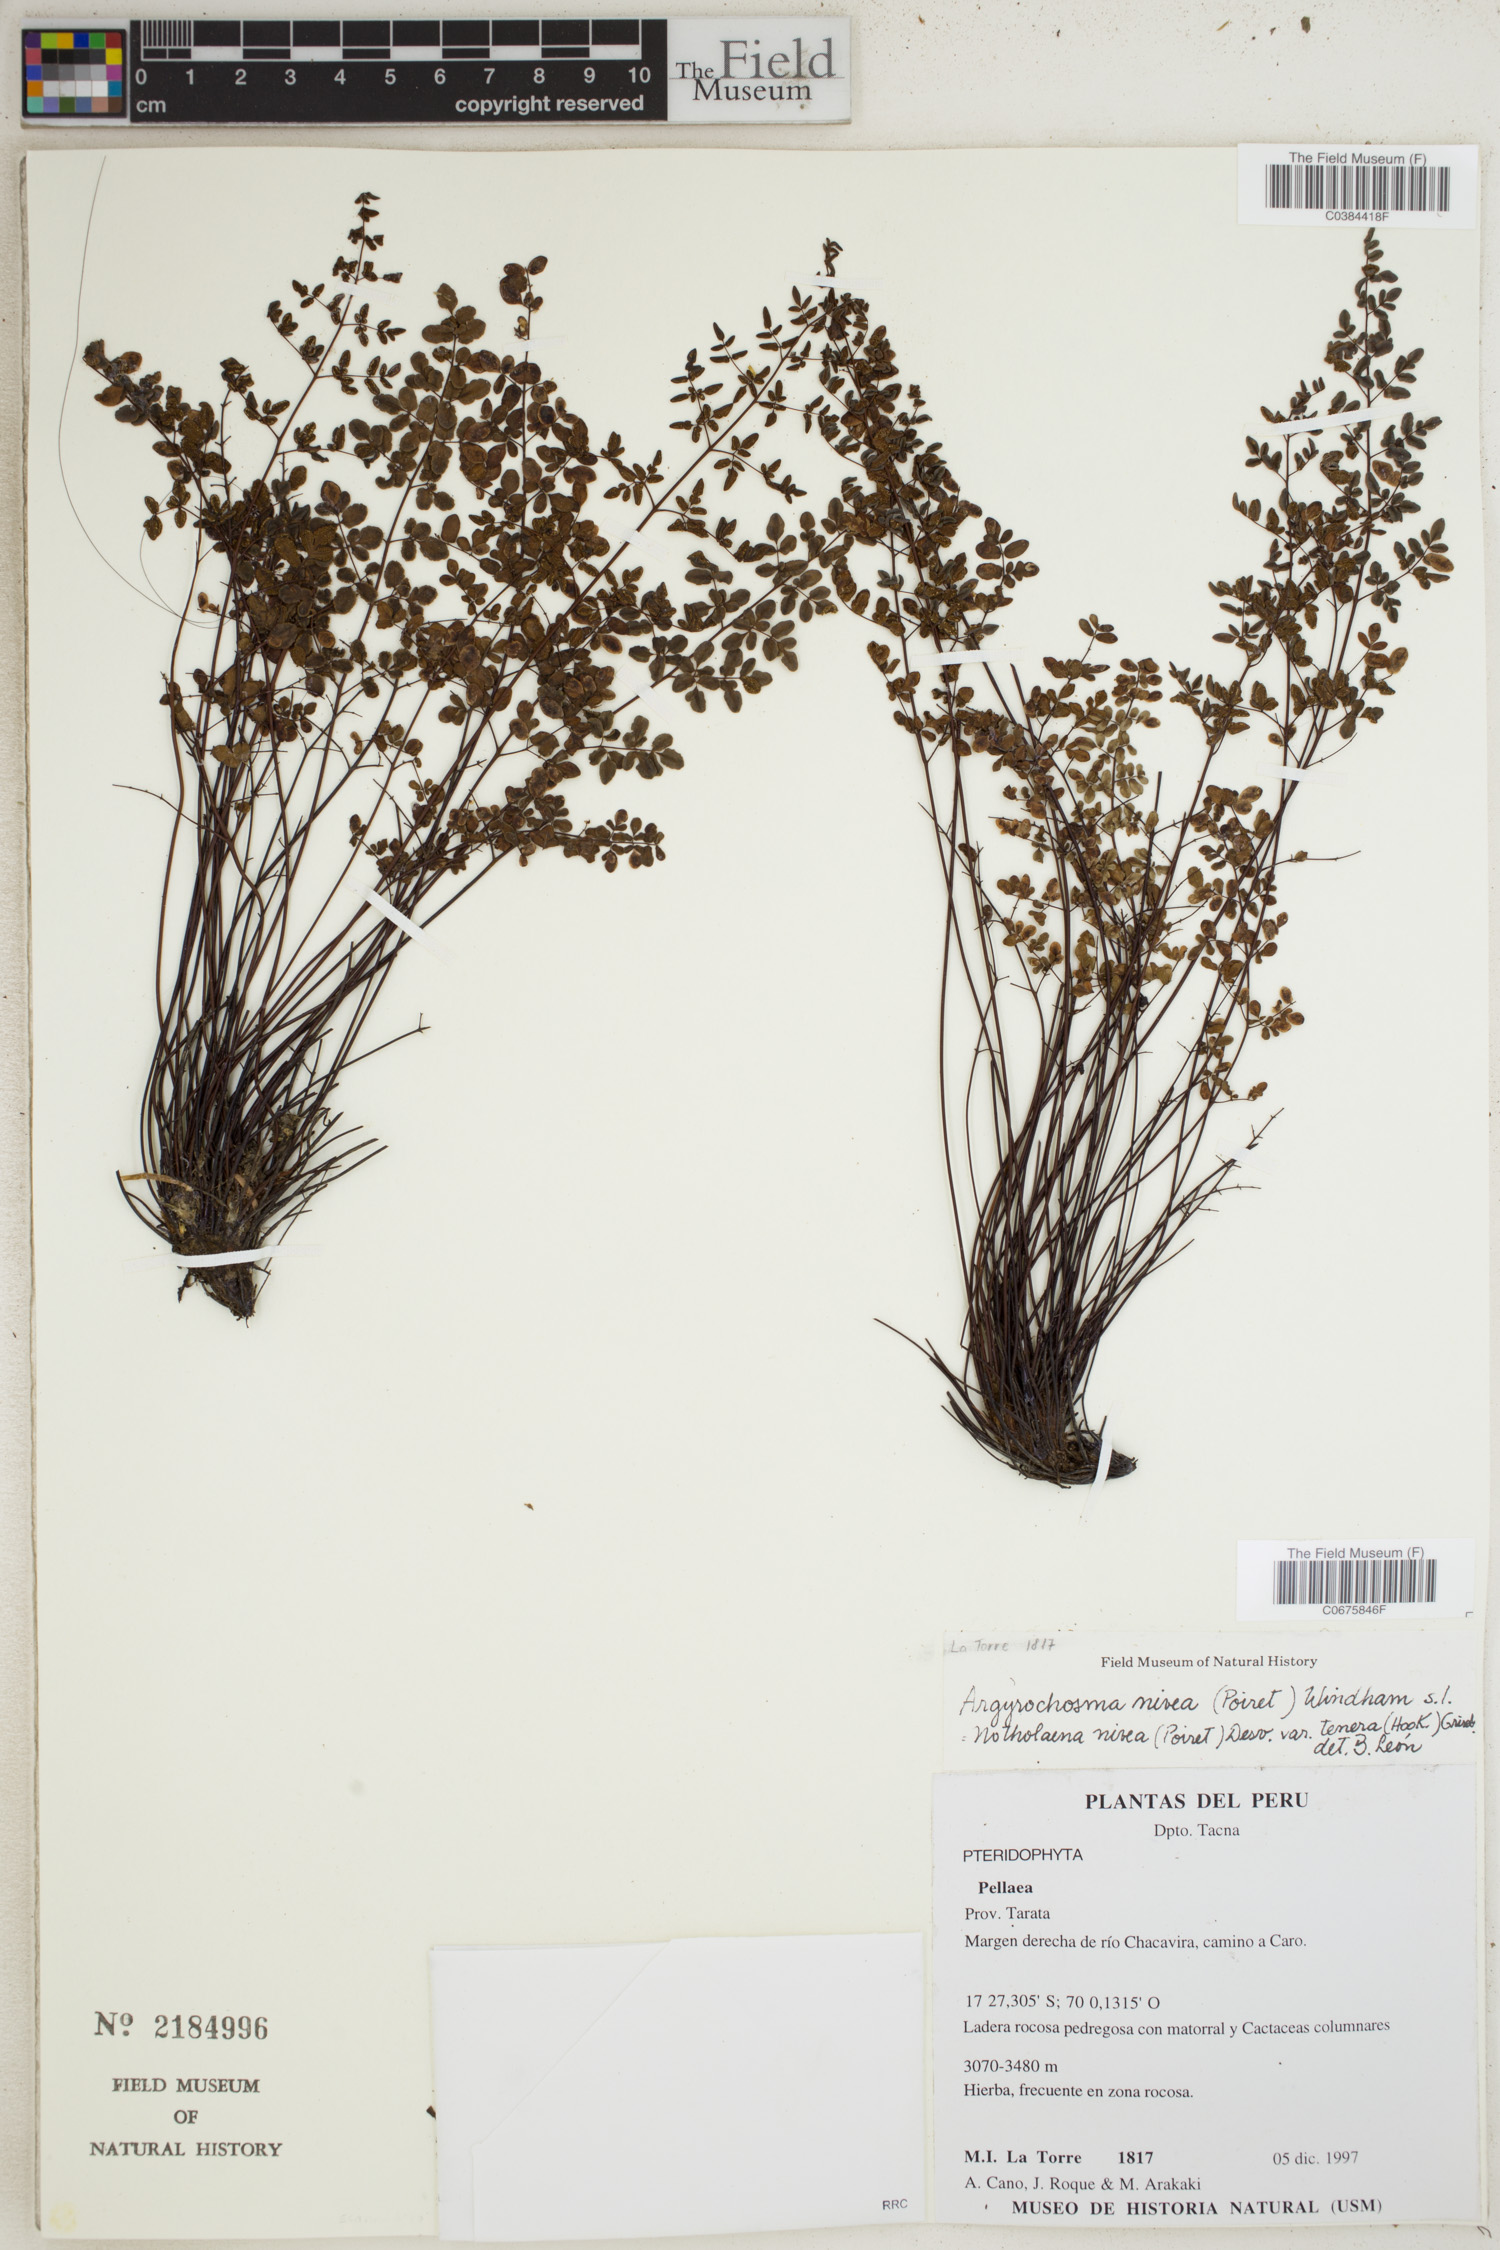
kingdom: Plantae
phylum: Tracheophyta
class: Polypodiopsida
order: Polypodiales
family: Pteridaceae
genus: Argyrochosma
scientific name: Argyrochosma nivea
